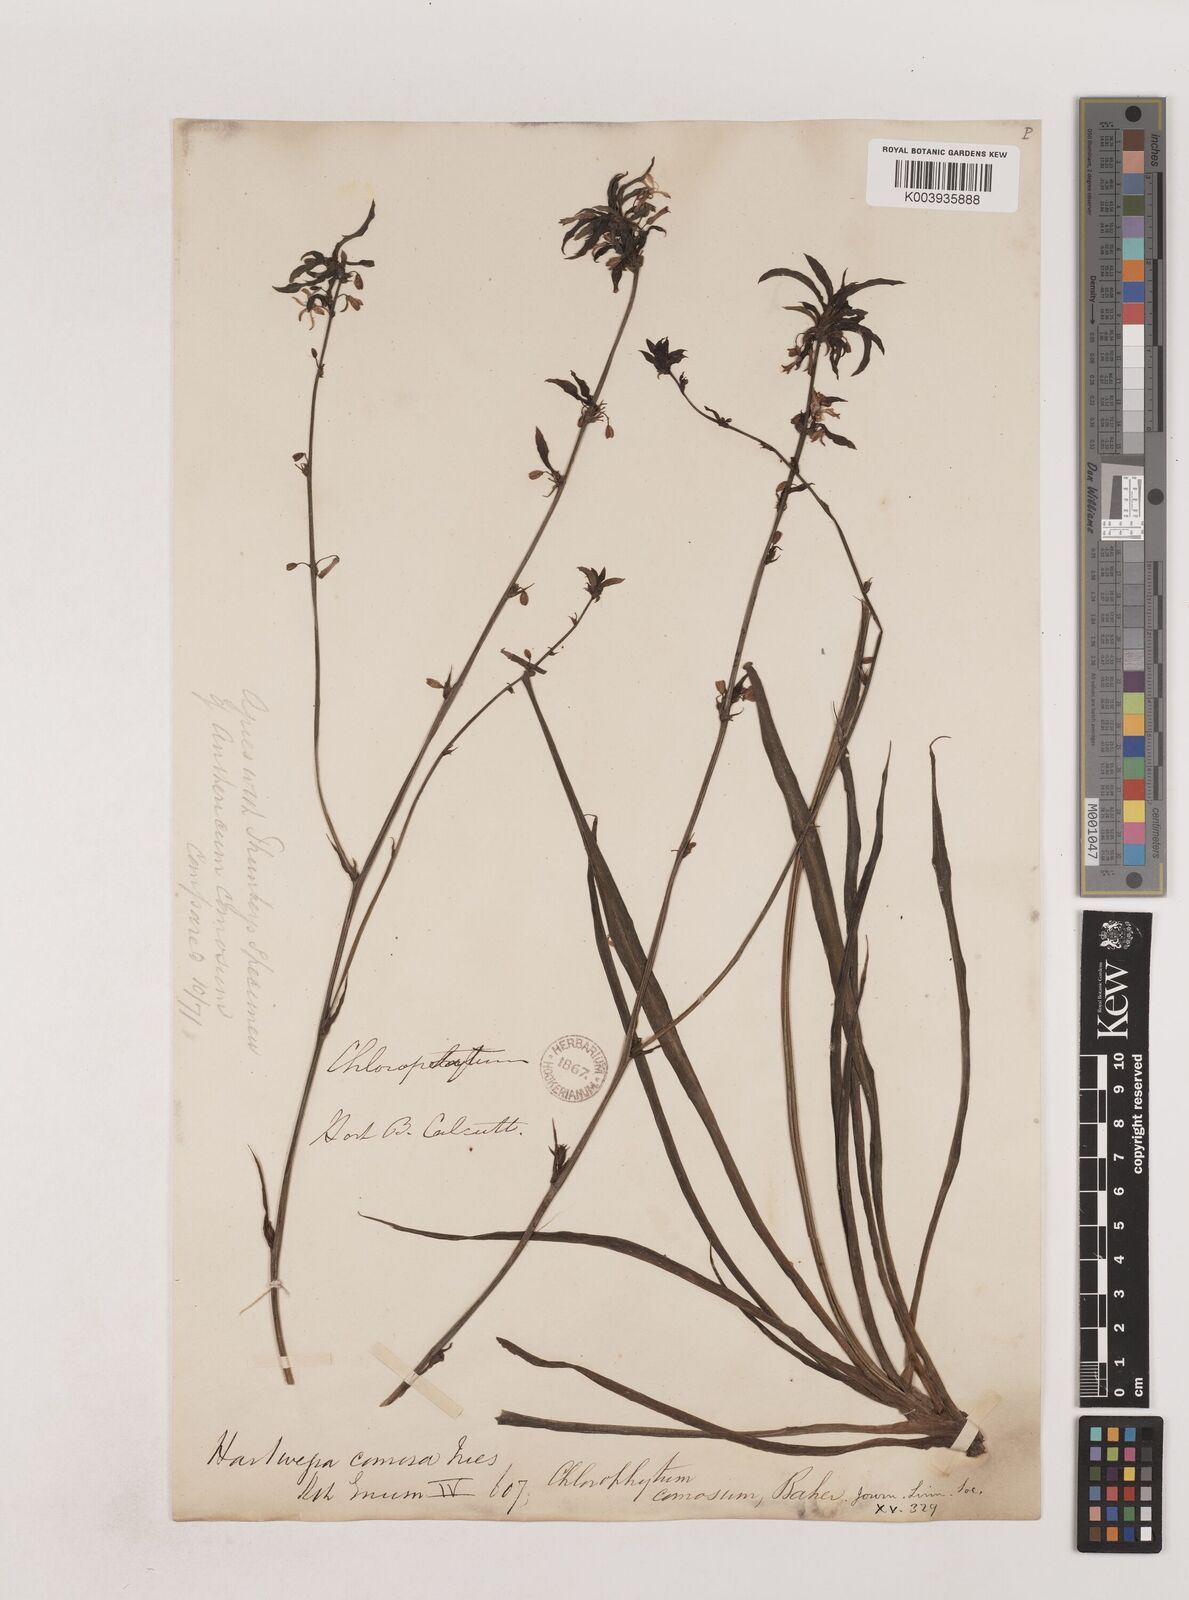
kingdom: Plantae
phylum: Tracheophyta
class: Liliopsida
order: Asparagales
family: Asparagaceae
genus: Chlorophytum
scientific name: Chlorophytum comosum
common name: Spider plant
